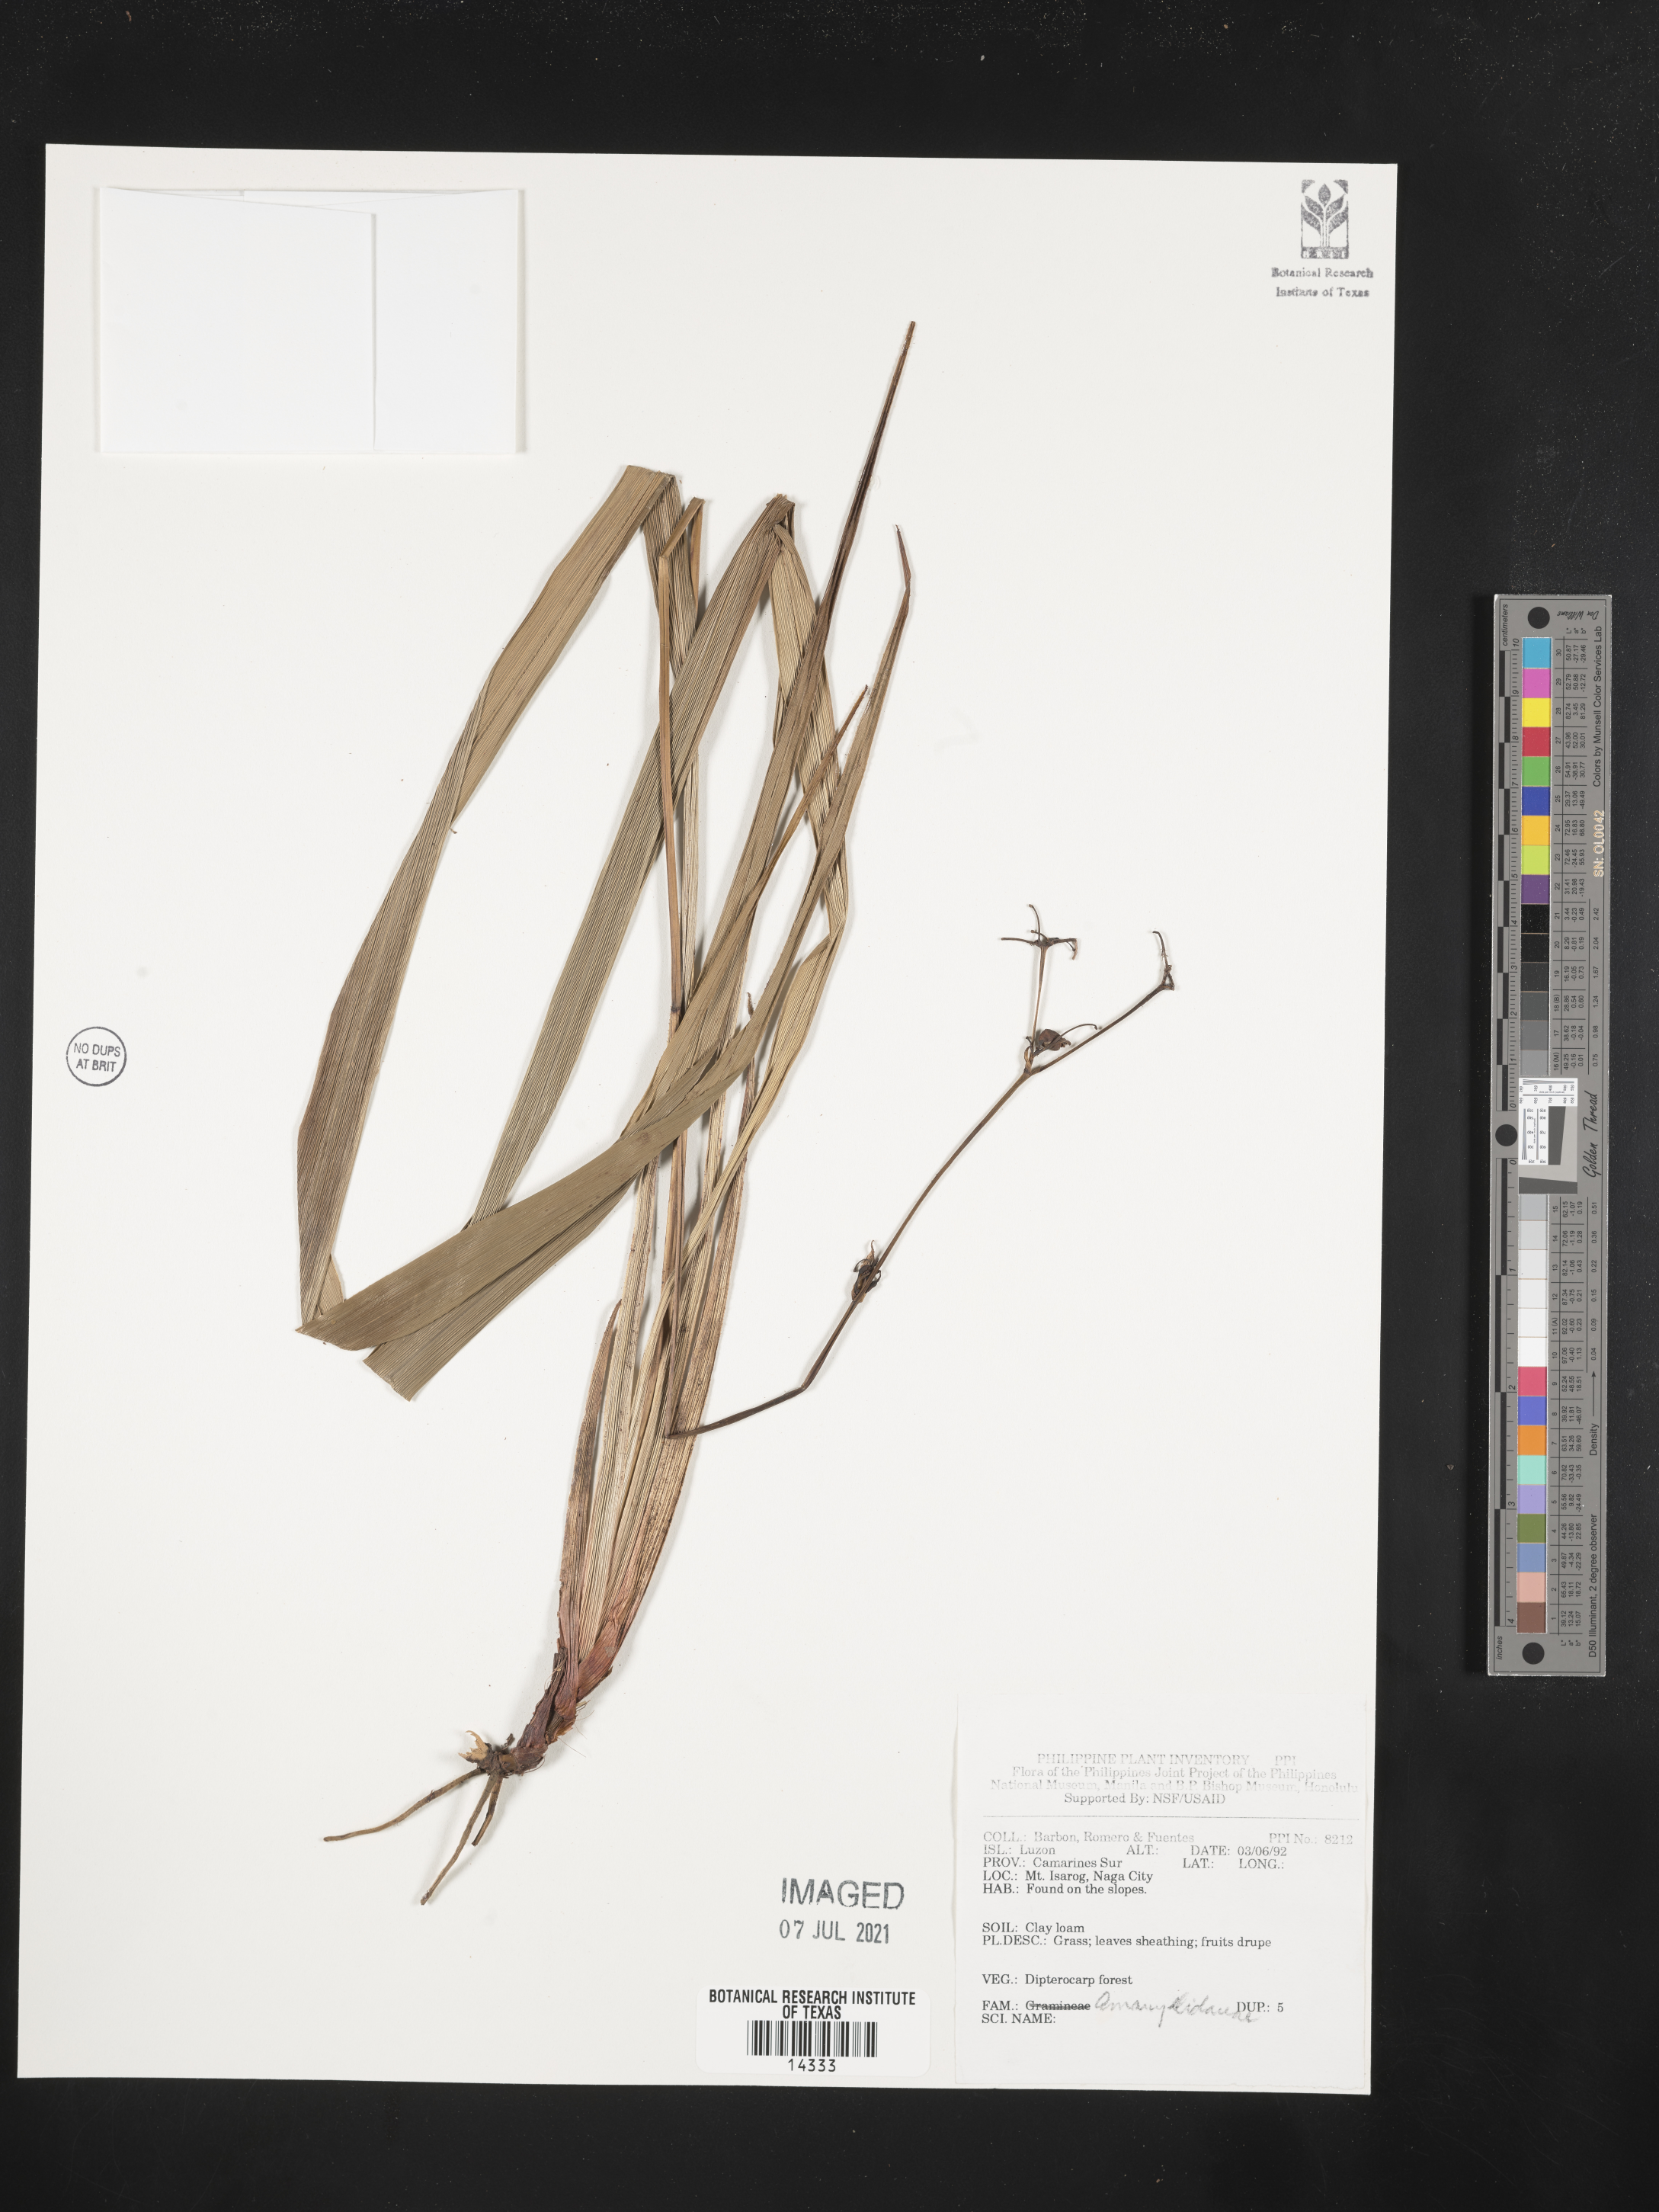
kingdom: Plantae
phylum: Tracheophyta
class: Liliopsida
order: Asparagales
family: Amaryllidaceae
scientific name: Amaryllidaceae
